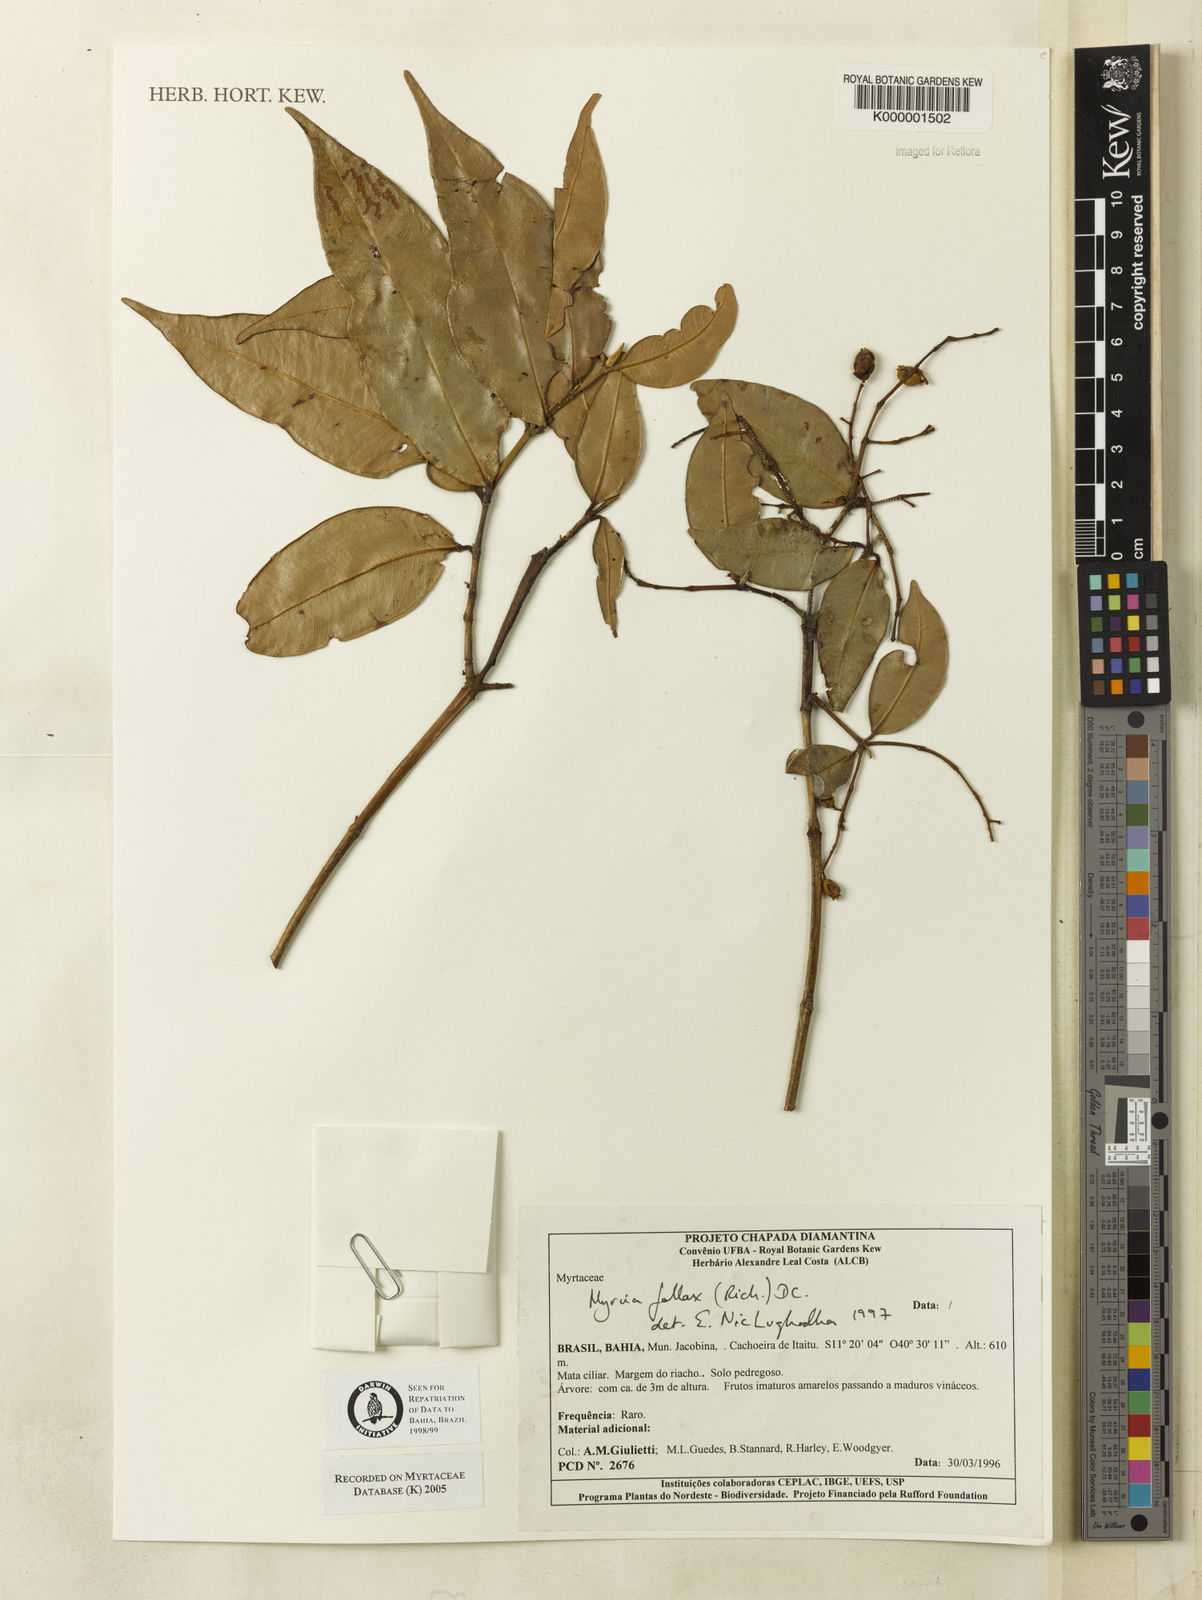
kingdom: Plantae
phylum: Tracheophyta
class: Magnoliopsida
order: Myrtales
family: Myrtaceae
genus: Myrcia
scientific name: Myrcia splendens
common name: Surinam cherry
